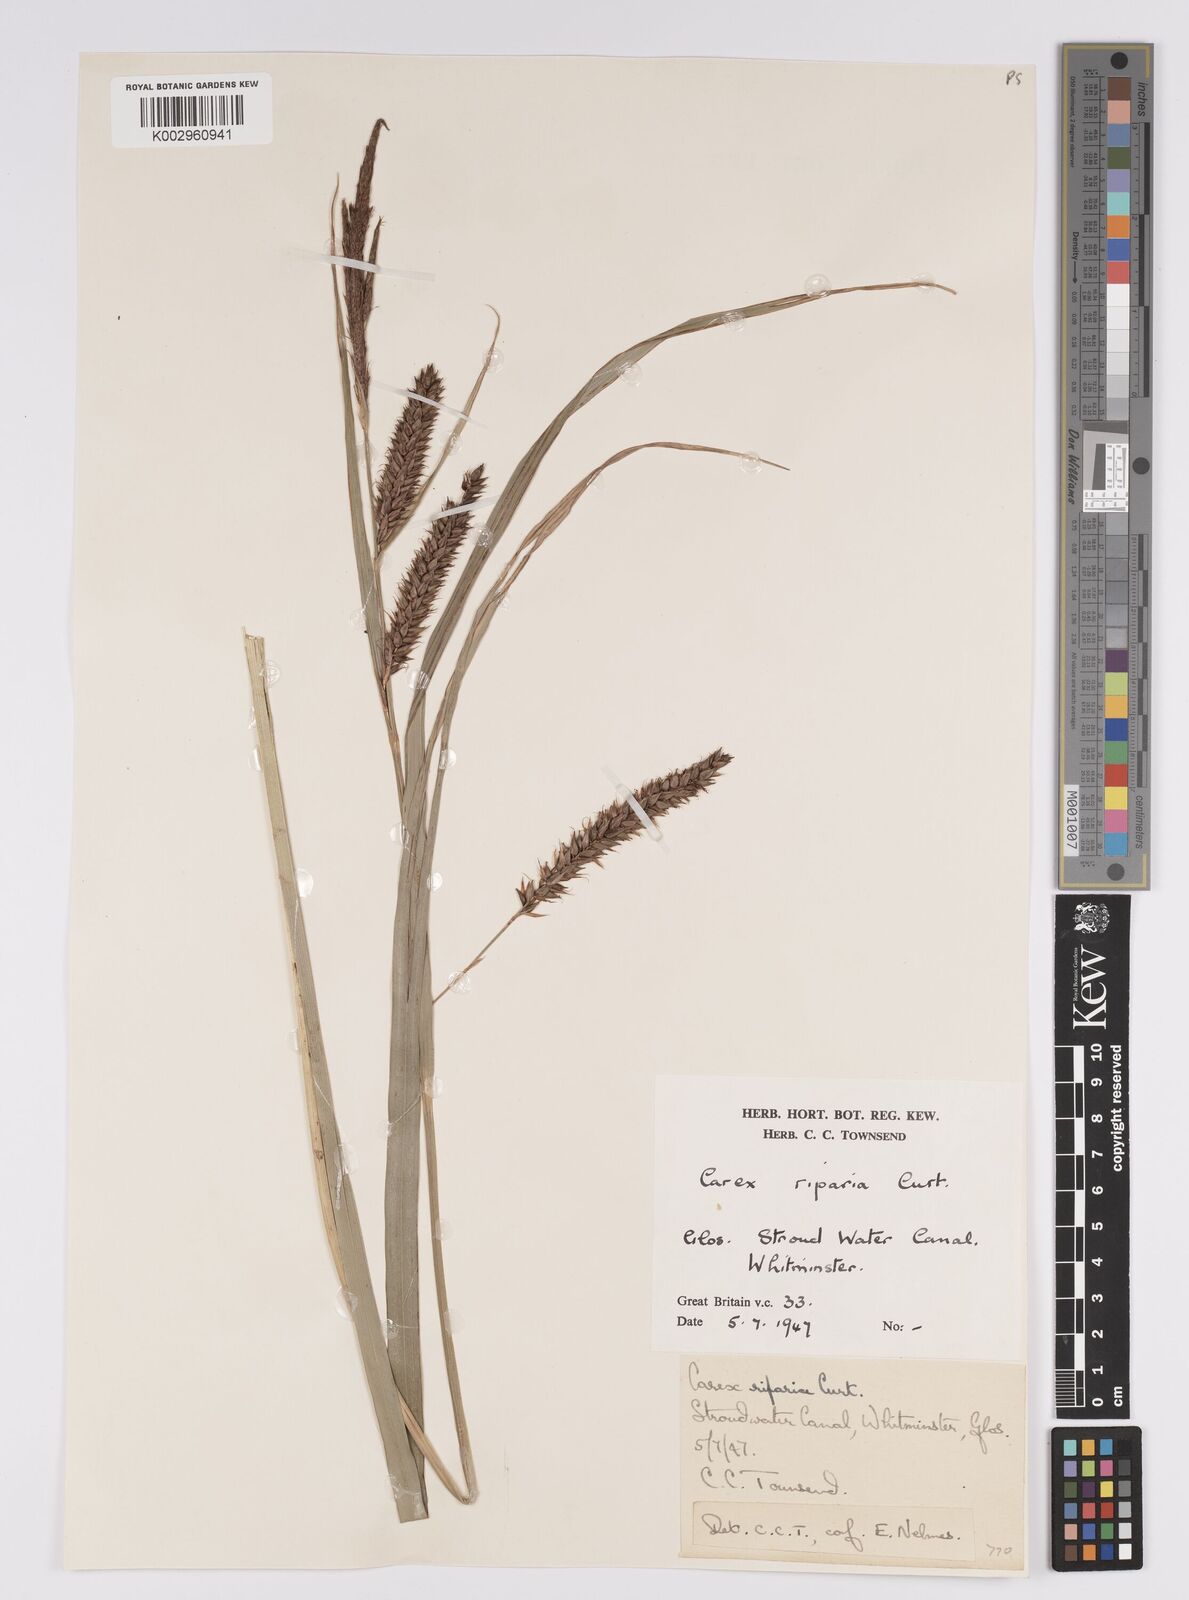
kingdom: Plantae
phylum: Tracheophyta
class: Liliopsida
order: Poales
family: Cyperaceae
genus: Carex
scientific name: Carex riparia
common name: Greater pond-sedge
